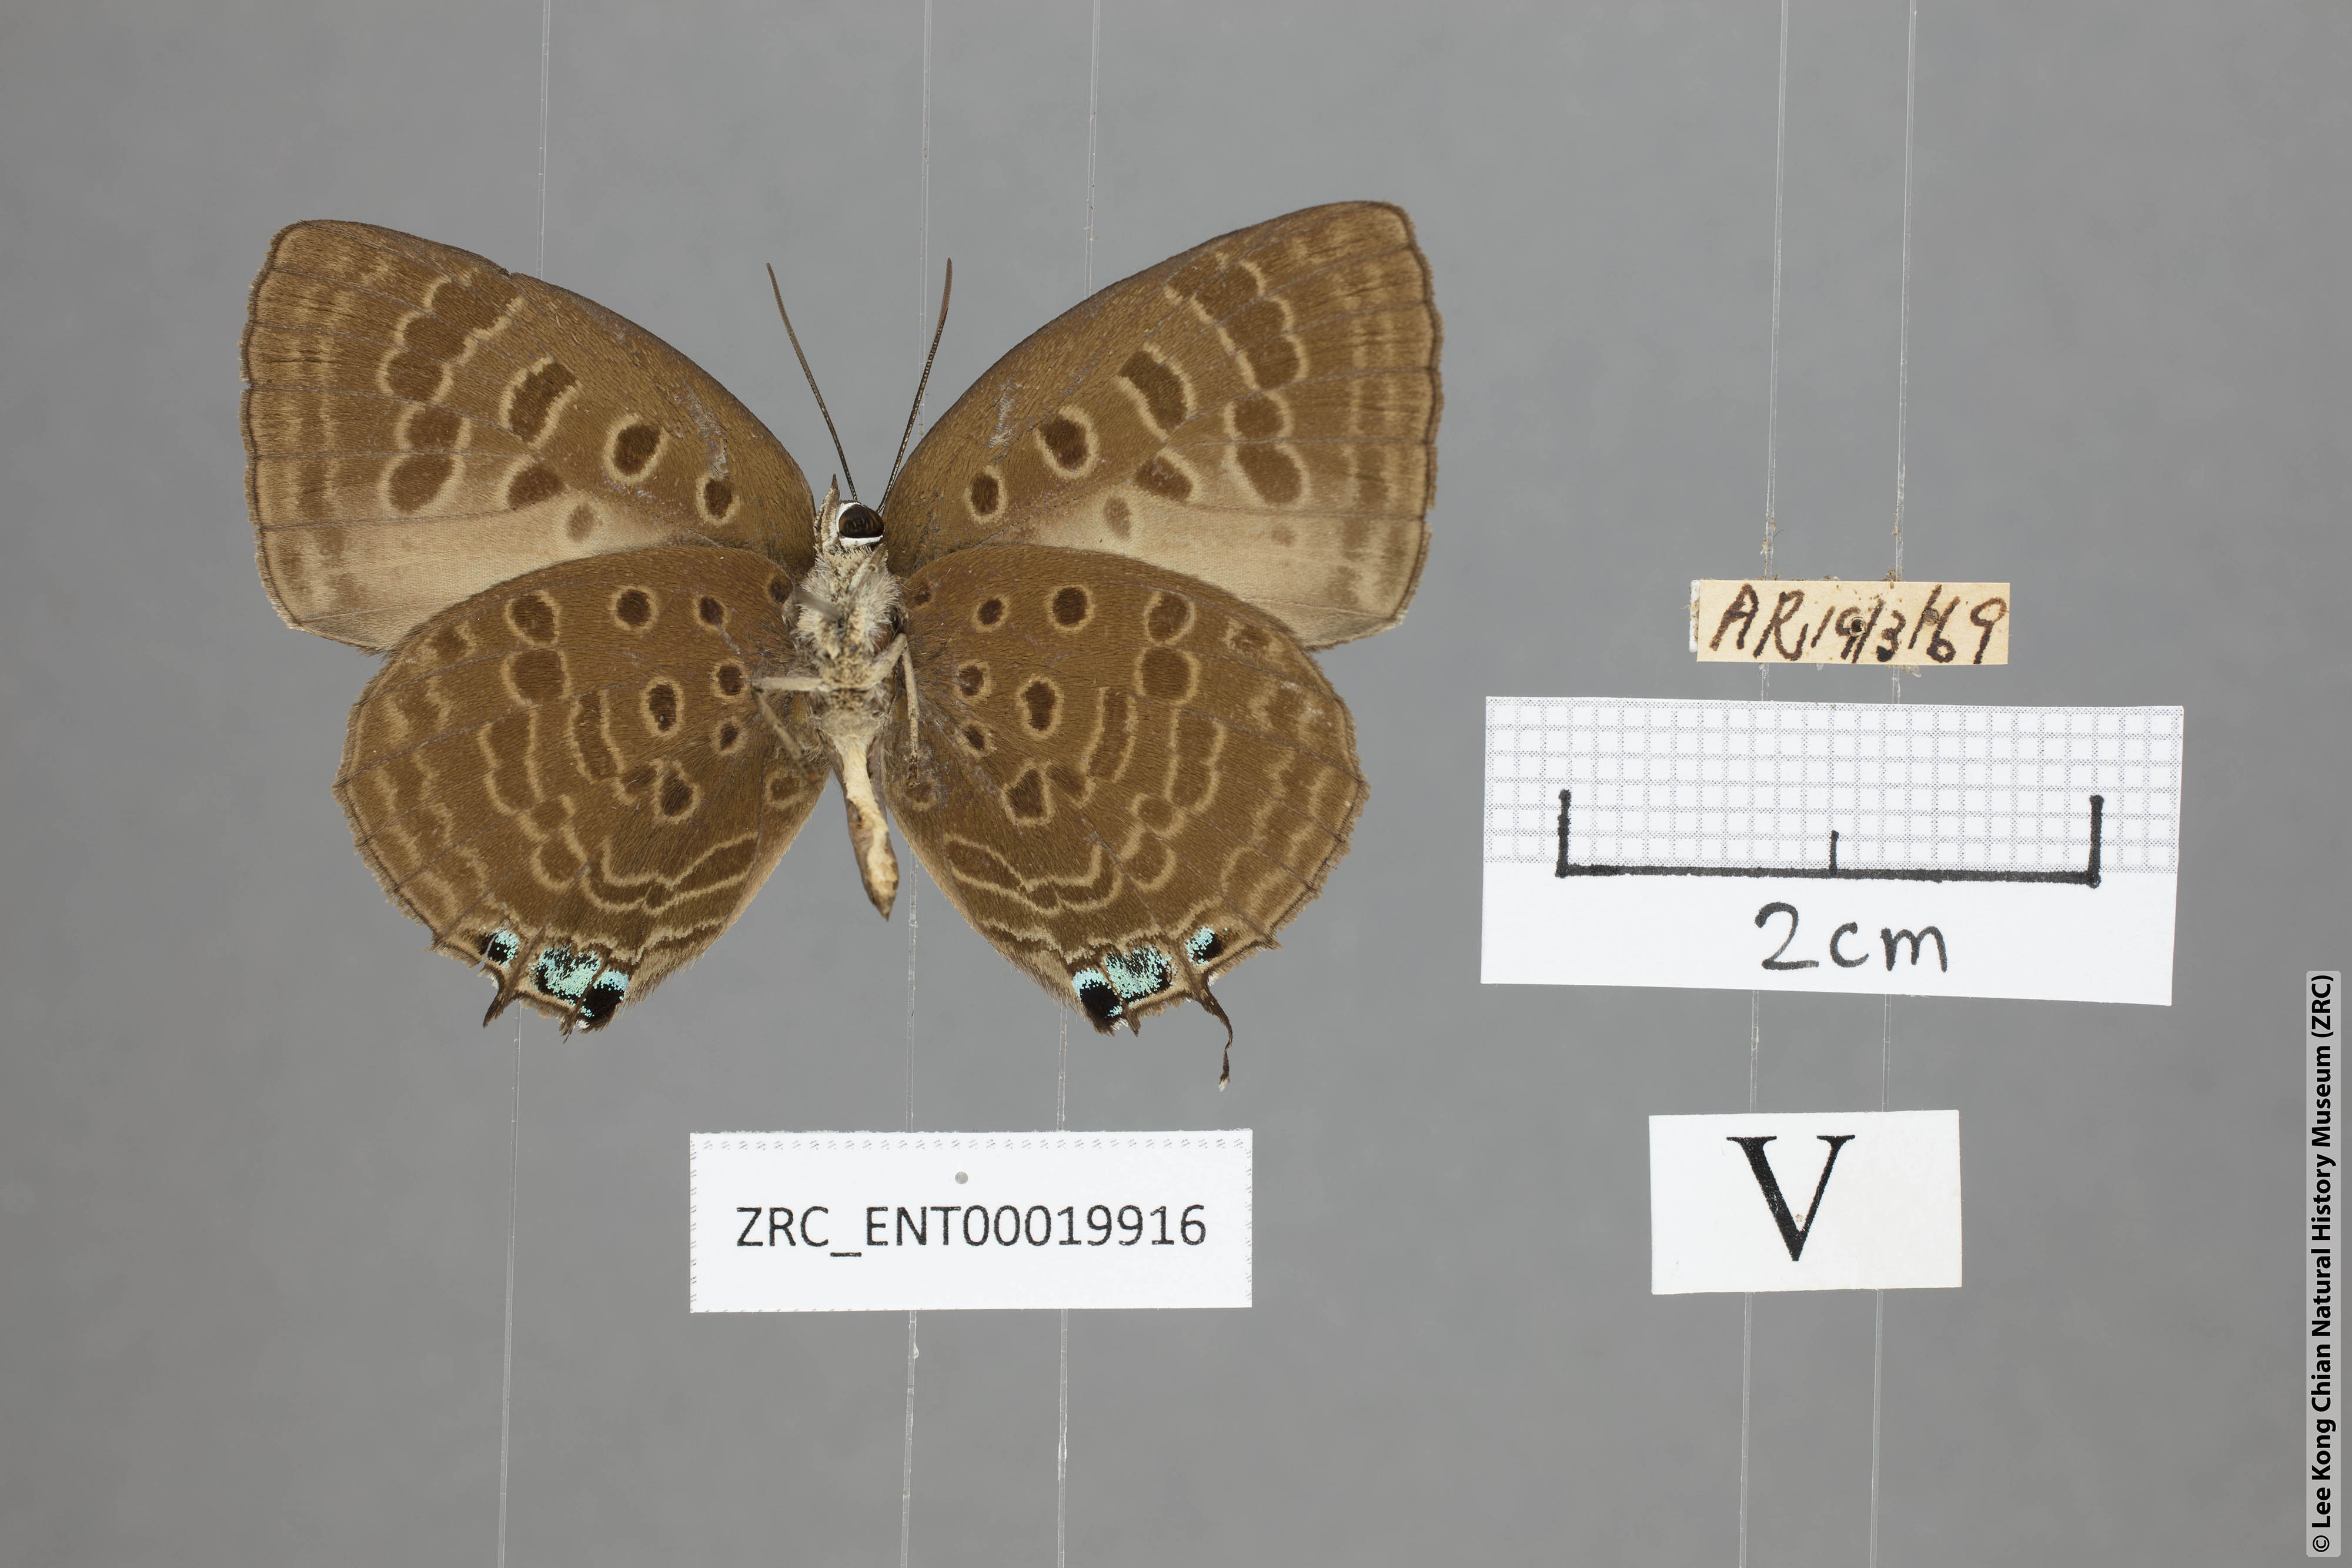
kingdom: Animalia
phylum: Arthropoda
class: Insecta
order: Lepidoptera
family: Lycaenidae
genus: Arhopala
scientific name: Arhopala vihara
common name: Large spotted oakblue
